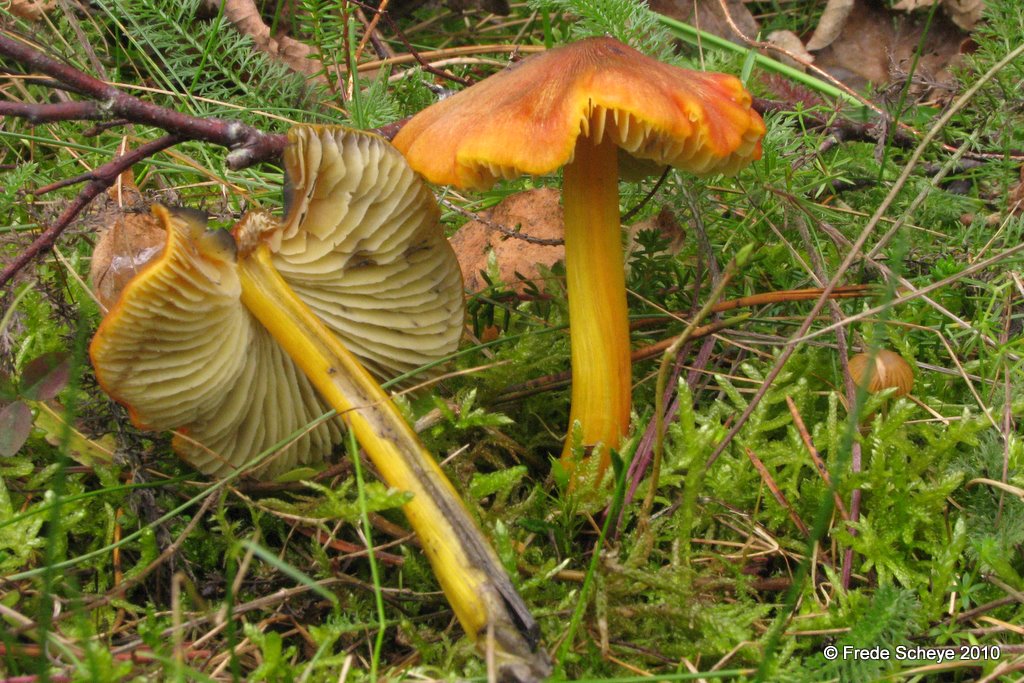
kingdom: Fungi
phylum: Basidiomycota
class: Agaricomycetes
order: Agaricales
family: Hygrophoraceae
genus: Hygrocybe
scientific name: Hygrocybe conica
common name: kegle-vokshat
